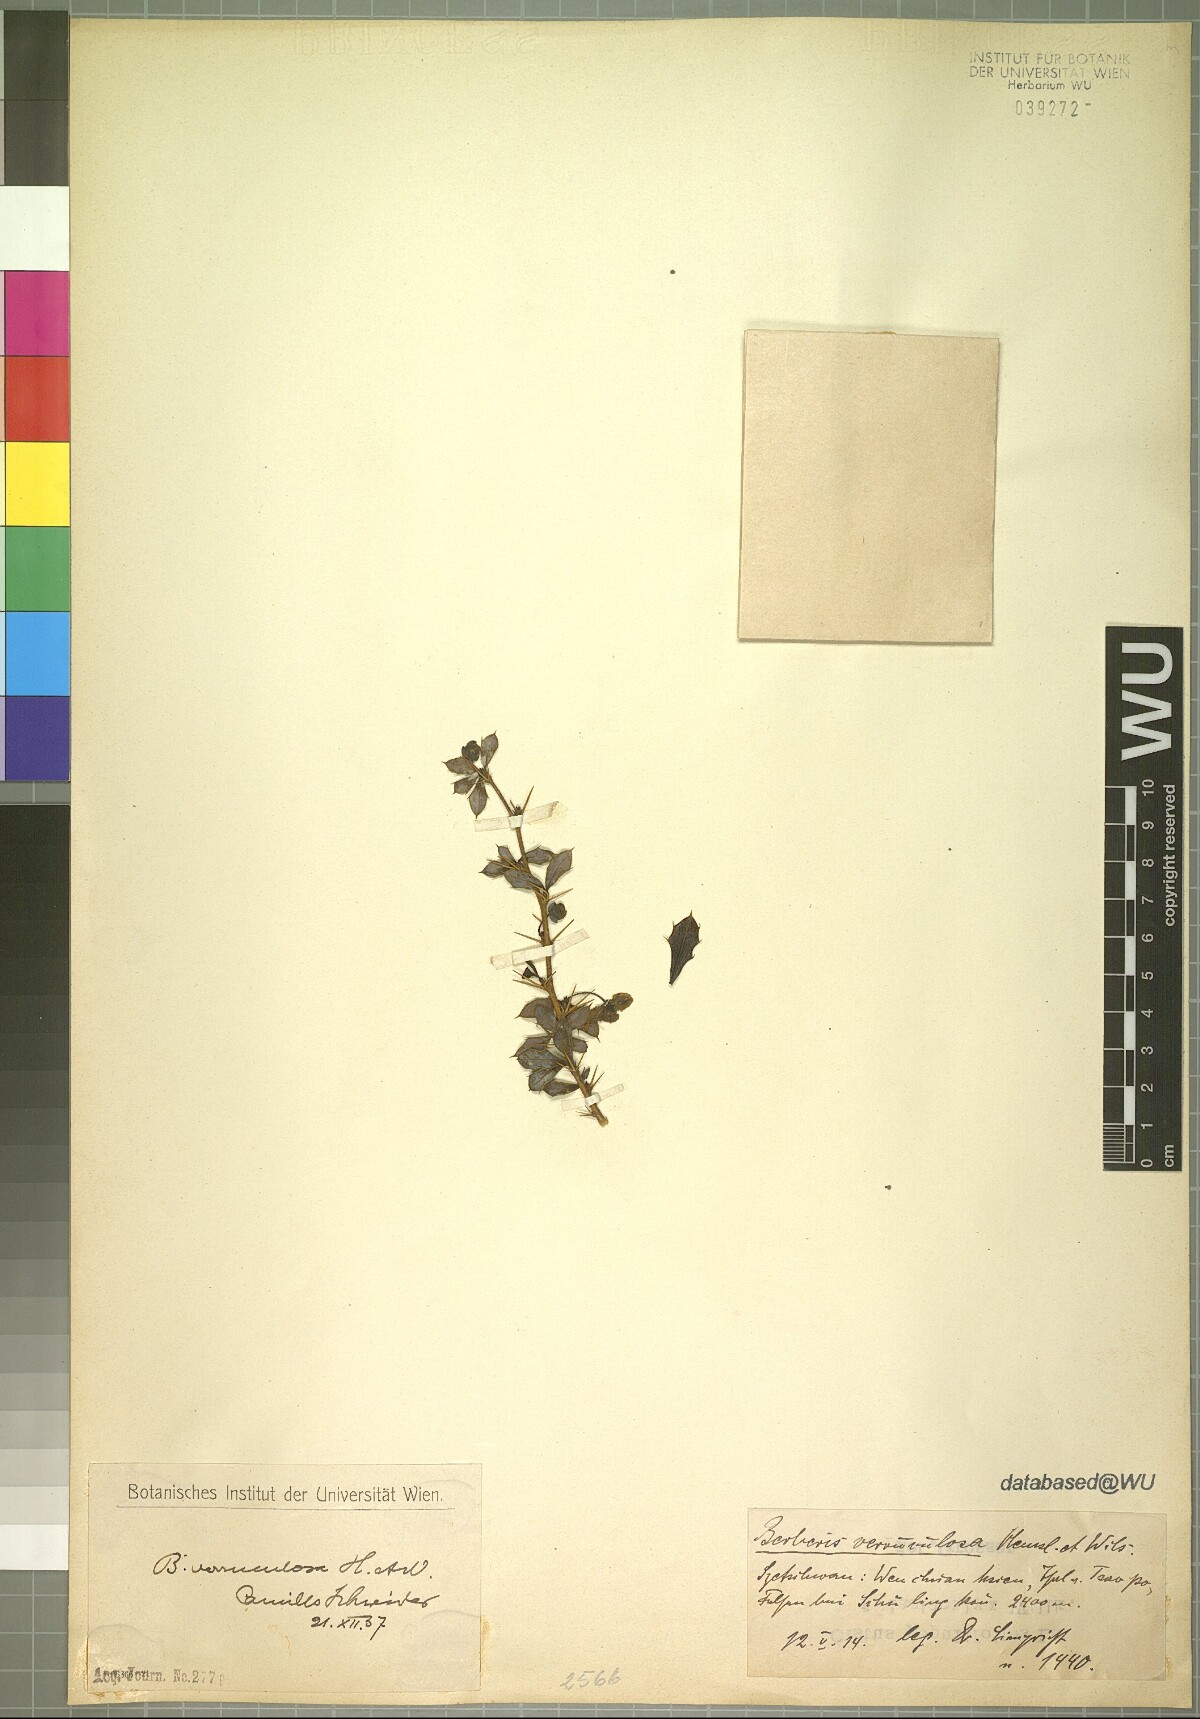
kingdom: Plantae
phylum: Tracheophyta
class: Magnoliopsida
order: Ranunculales
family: Berberidaceae
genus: Berberis
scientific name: Berberis verruculosa
